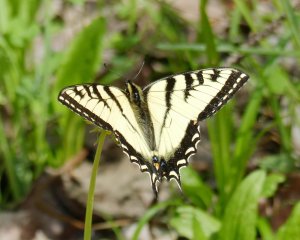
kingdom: Animalia
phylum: Arthropoda
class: Insecta
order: Lepidoptera
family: Papilionidae
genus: Pterourus
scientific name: Pterourus canadensis
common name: Canadian Tiger Swallowtail
